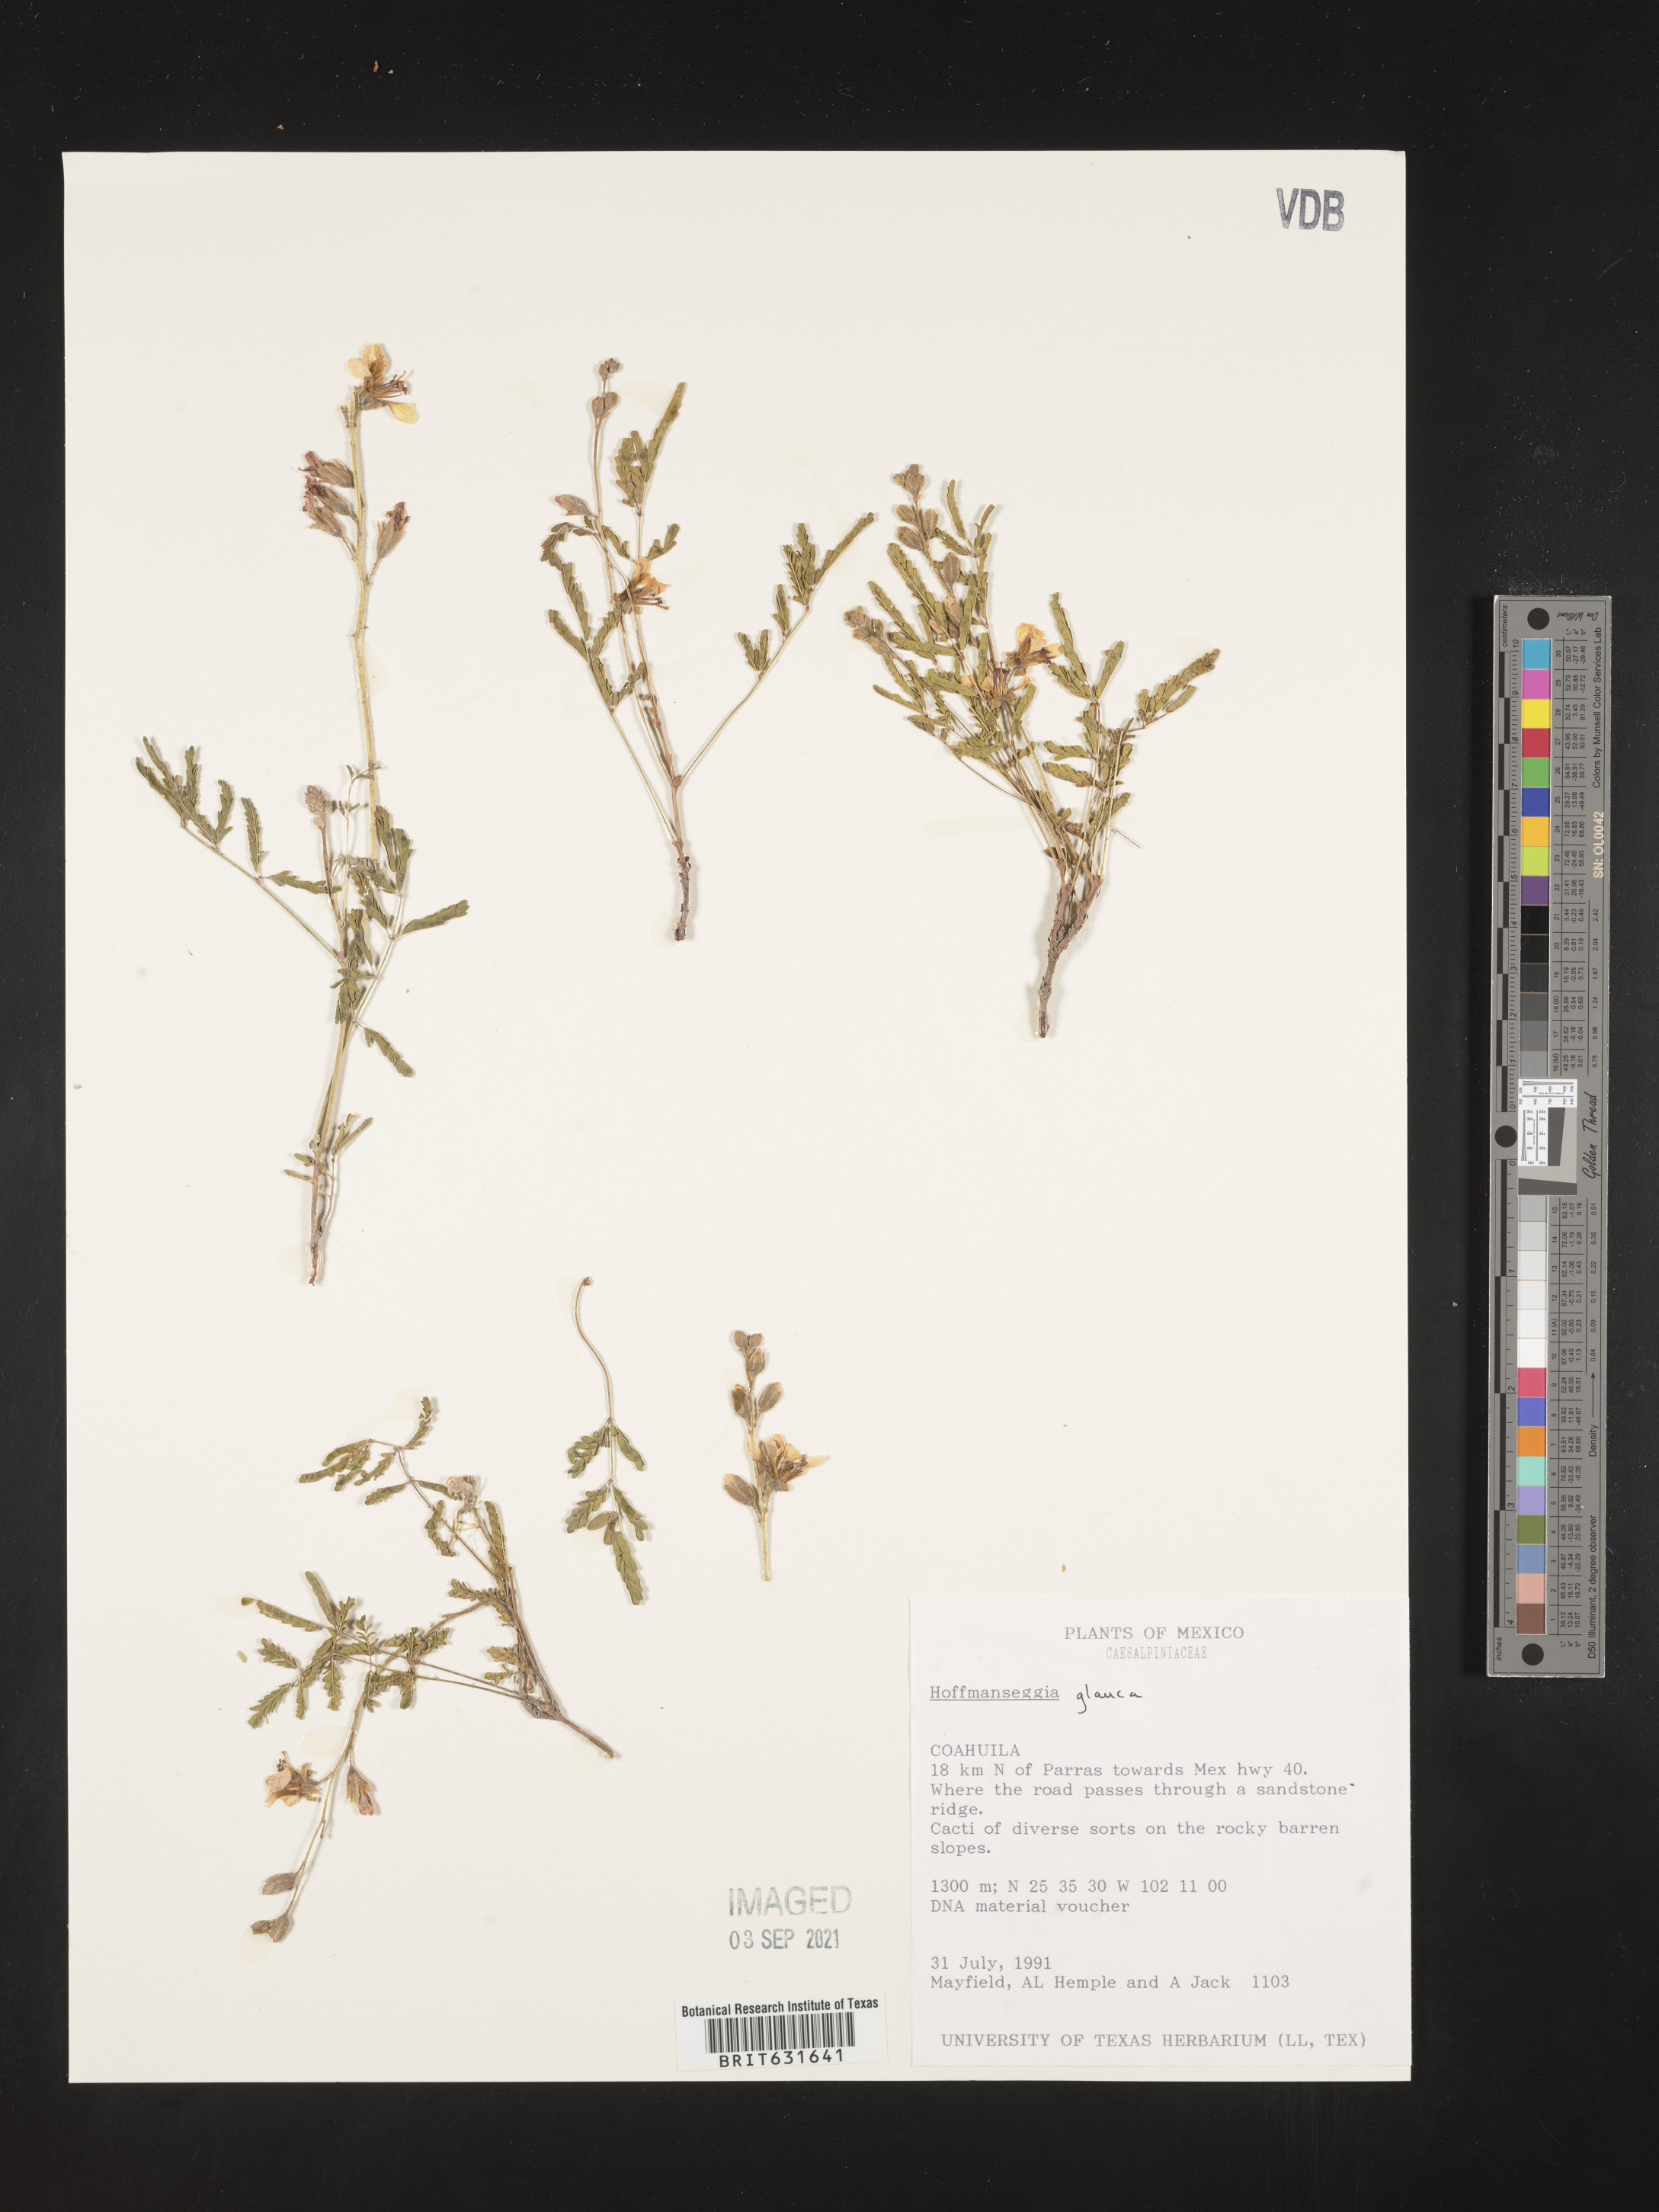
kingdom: Plantae
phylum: Tracheophyta
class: Magnoliopsida
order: Fabales
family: Fabaceae
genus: Hoffmannseggia
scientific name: Hoffmannseggia
